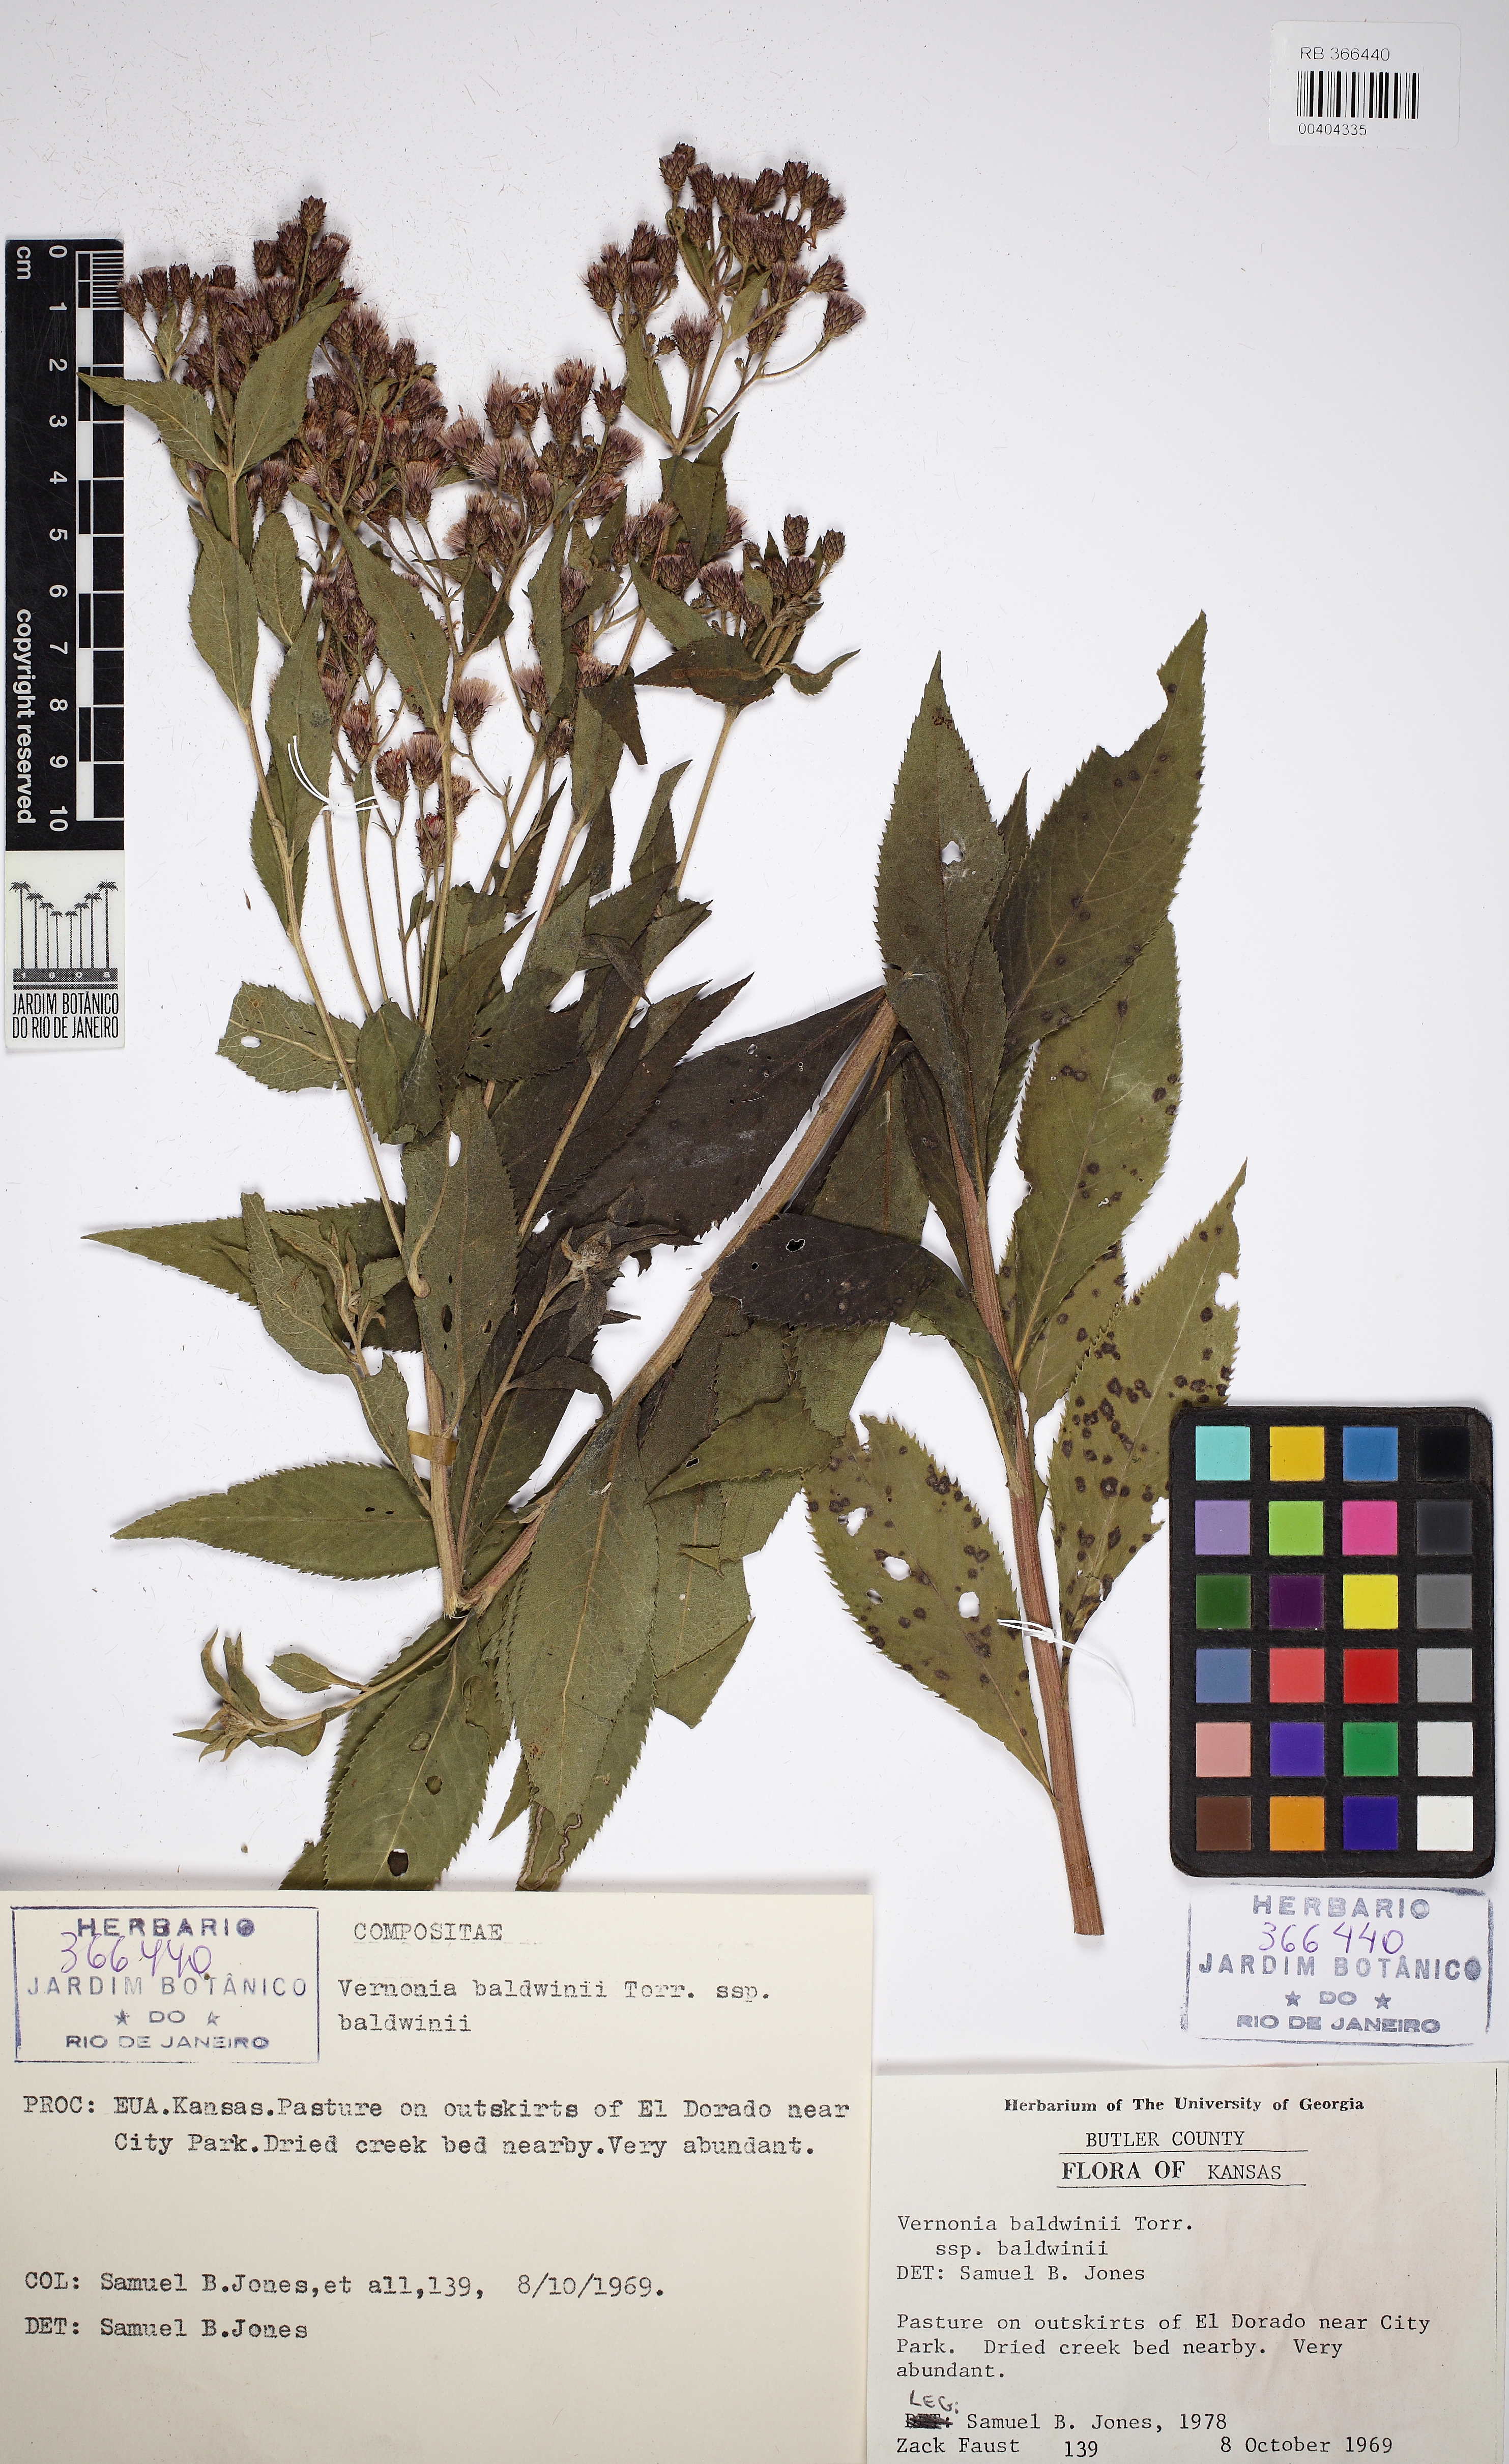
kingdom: Plantae
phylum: Tracheophyta
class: Magnoliopsida
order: Asterales
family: Asteraceae
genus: Vernonia
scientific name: Vernonia baldwinii
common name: Western ironweed
